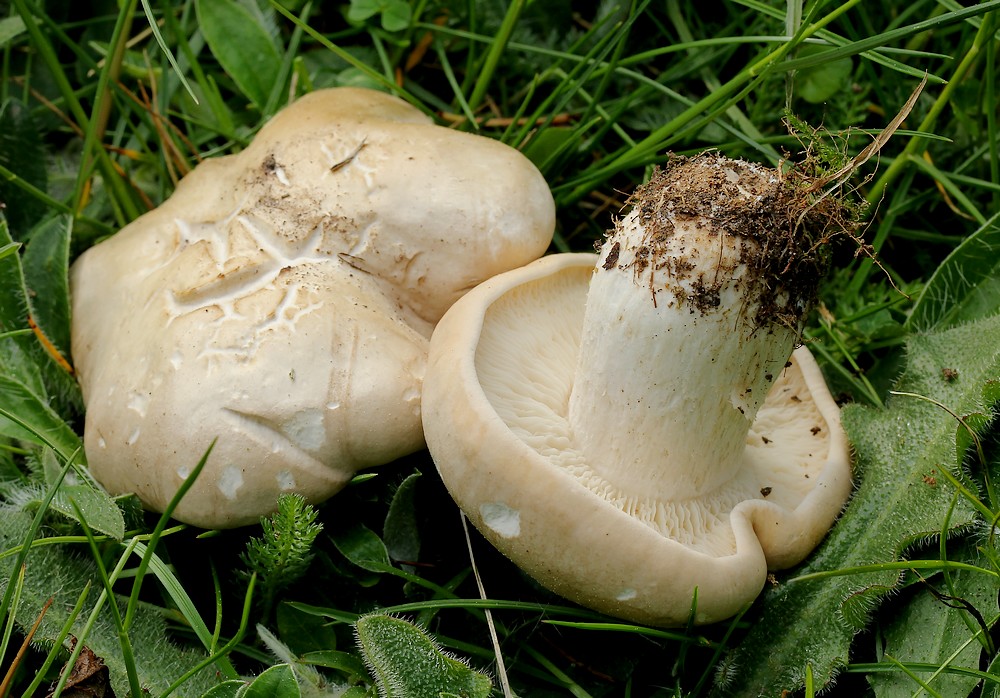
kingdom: Fungi
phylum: Basidiomycota
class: Agaricomycetes
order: Agaricales
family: Lyophyllaceae
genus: Calocybe
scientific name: Calocybe gambosa
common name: vårmusseron
